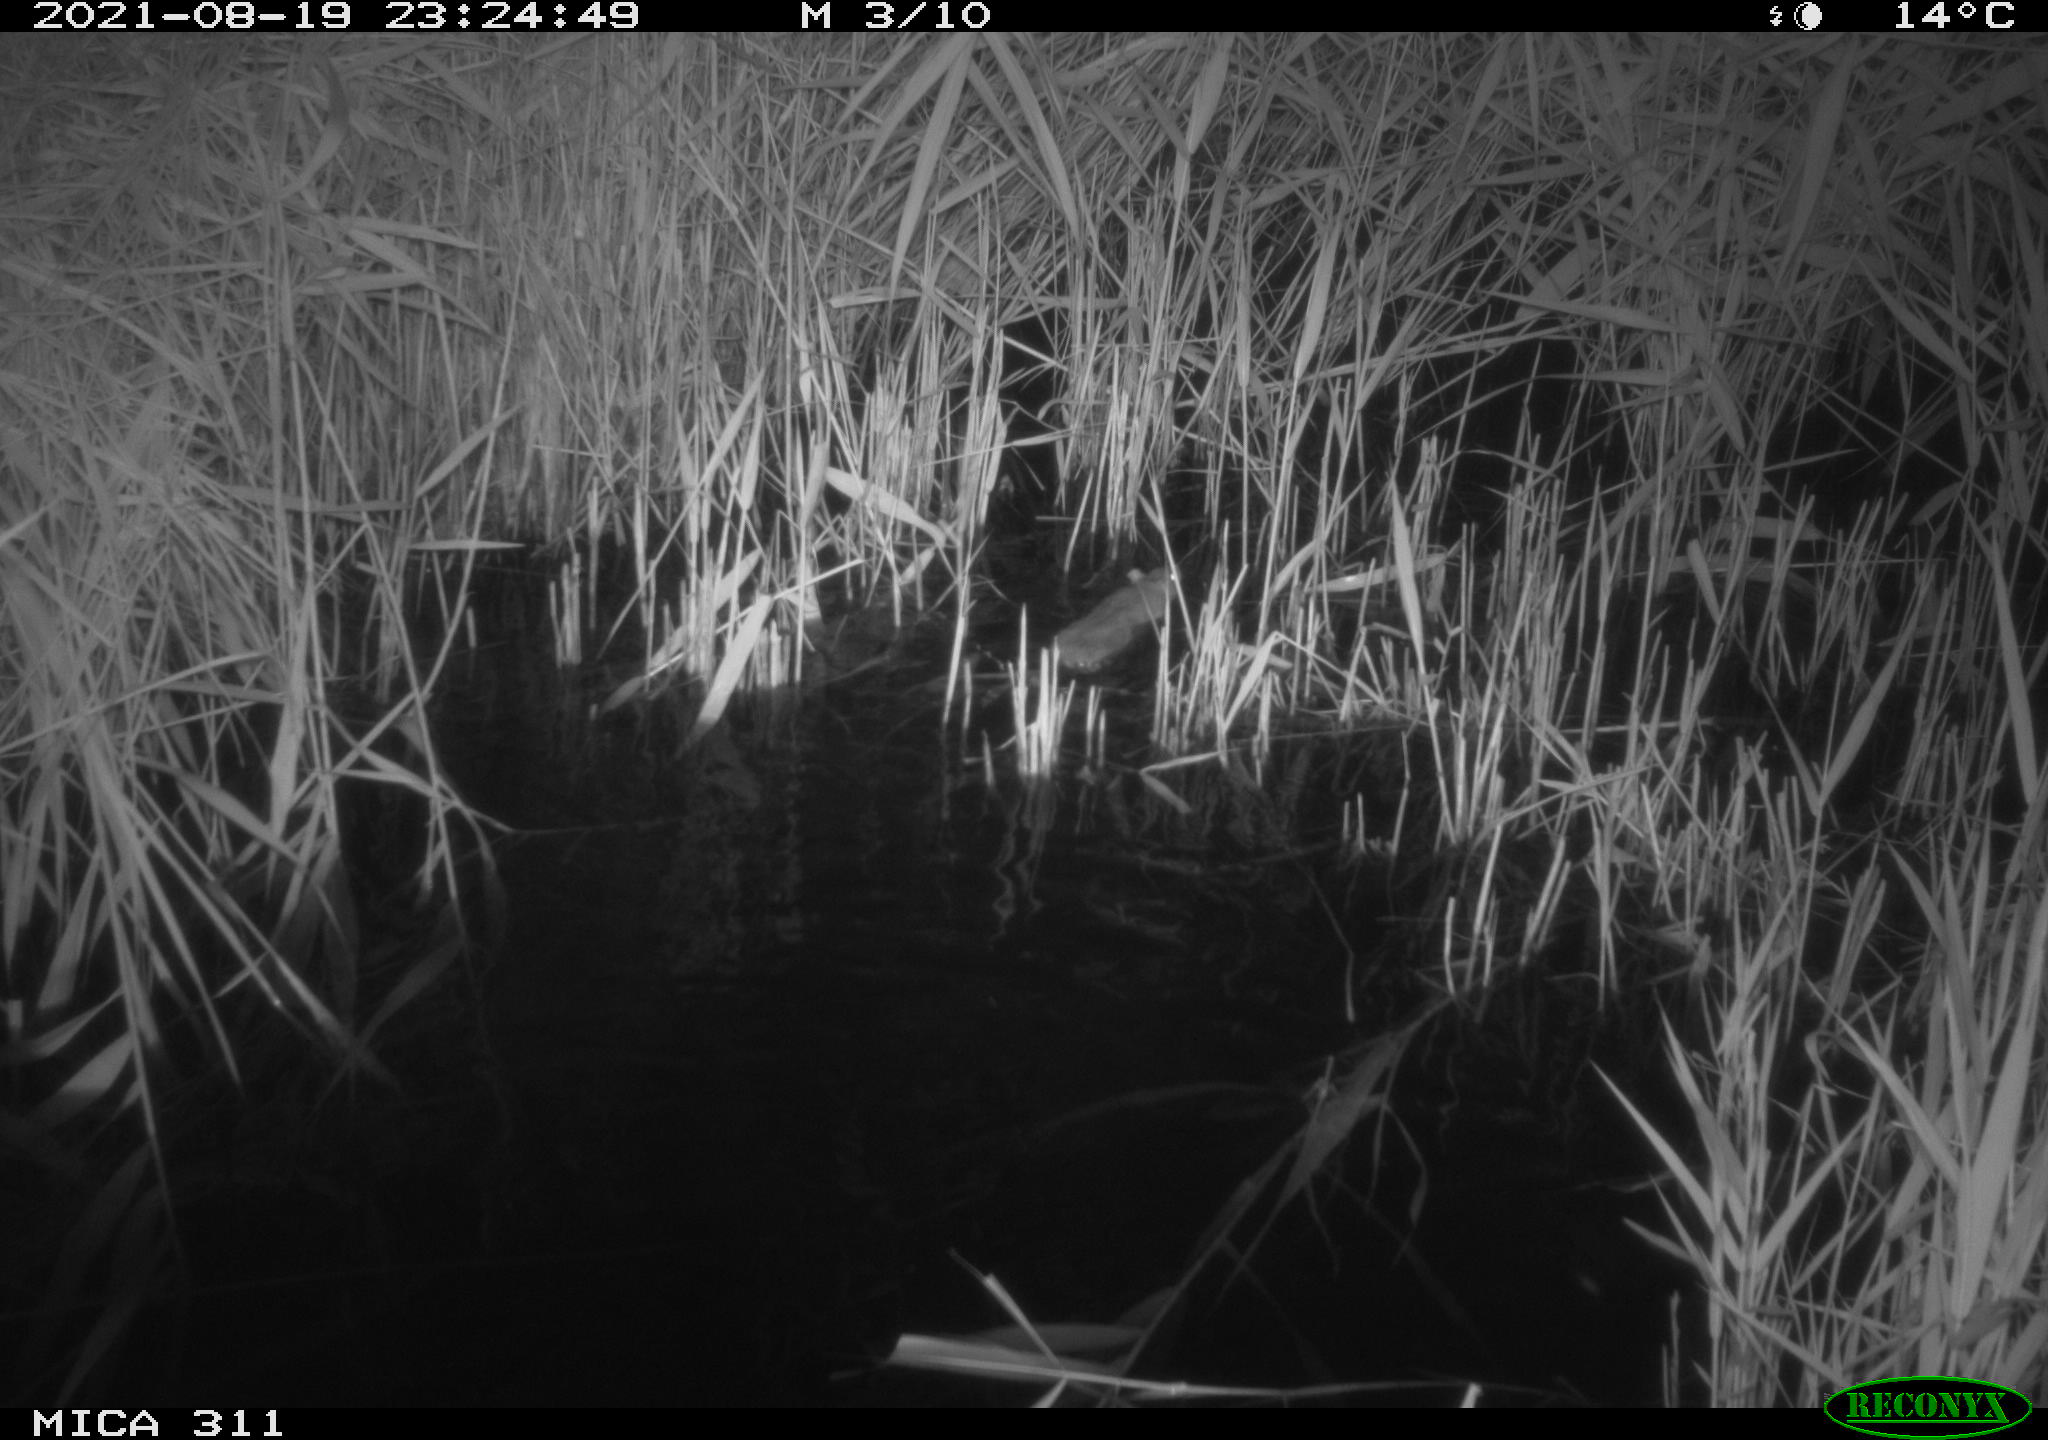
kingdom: Animalia
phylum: Chordata
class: Mammalia
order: Rodentia
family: Muridae
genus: Rattus
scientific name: Rattus norvegicus
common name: Brown rat
